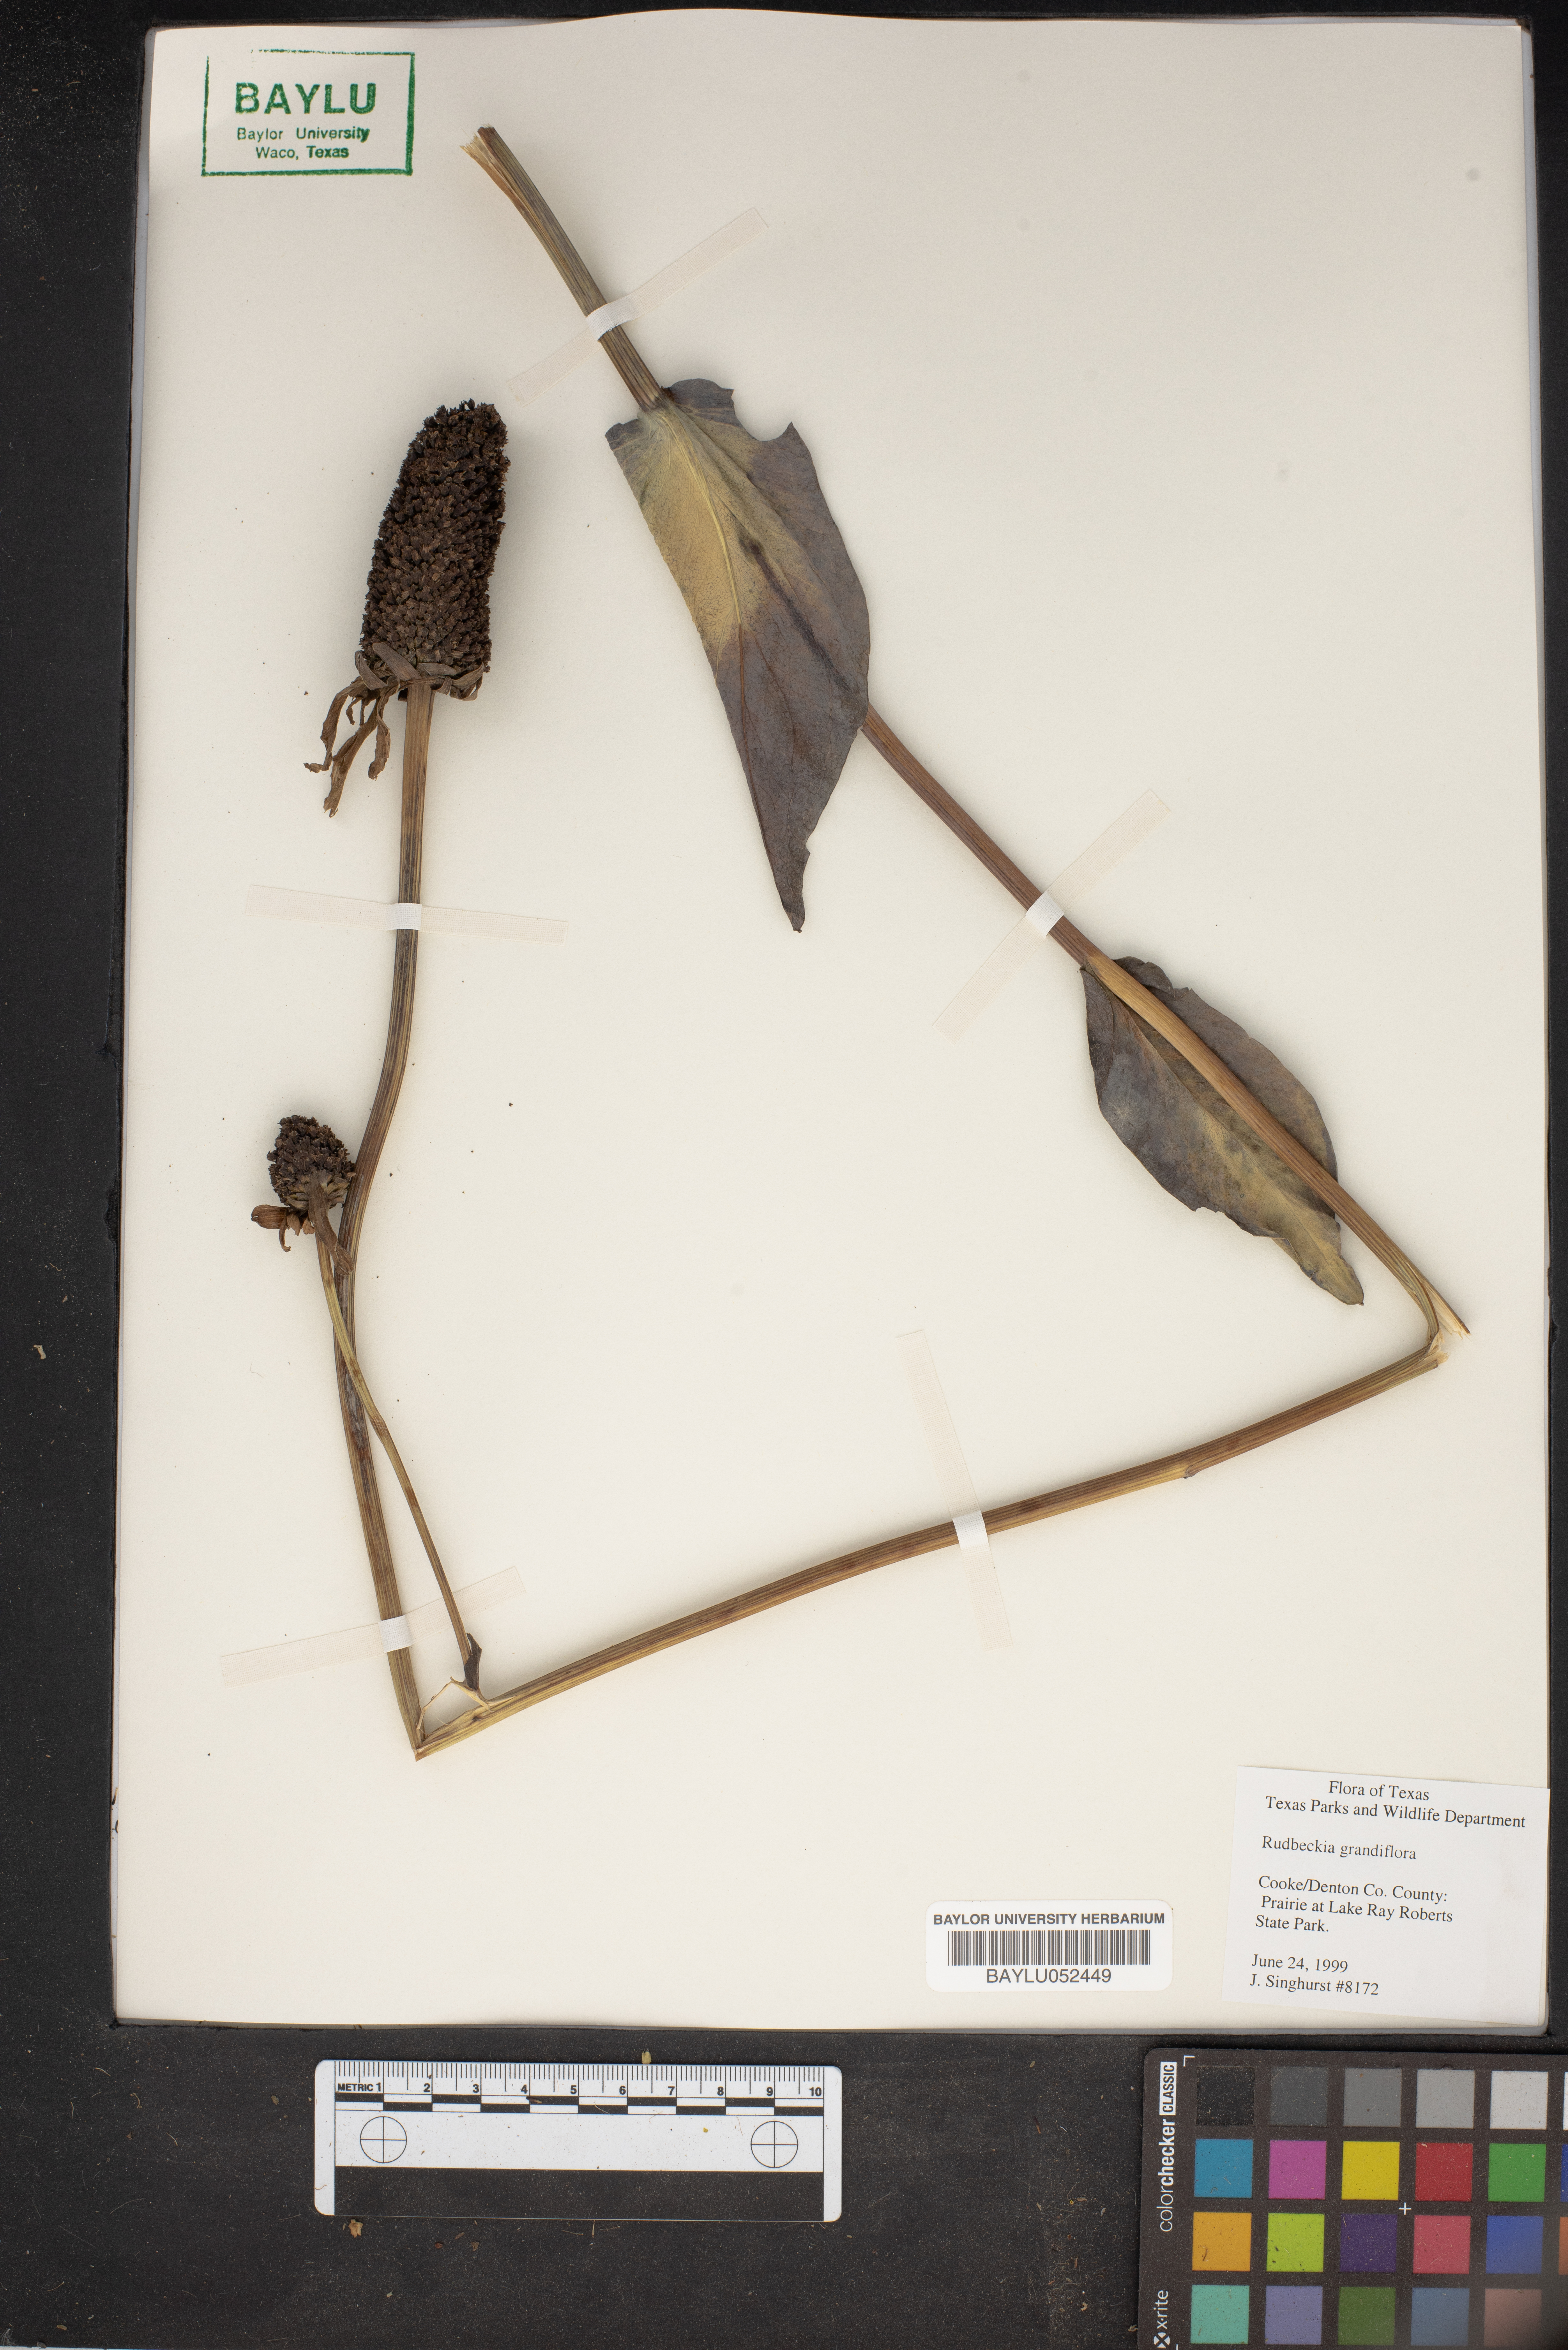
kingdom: Plantae
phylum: Tracheophyta
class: Magnoliopsida
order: Asterales
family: Asteraceae
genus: Rudbeckia
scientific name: Rudbeckia grandiflora
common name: Large-flowered coneflower
